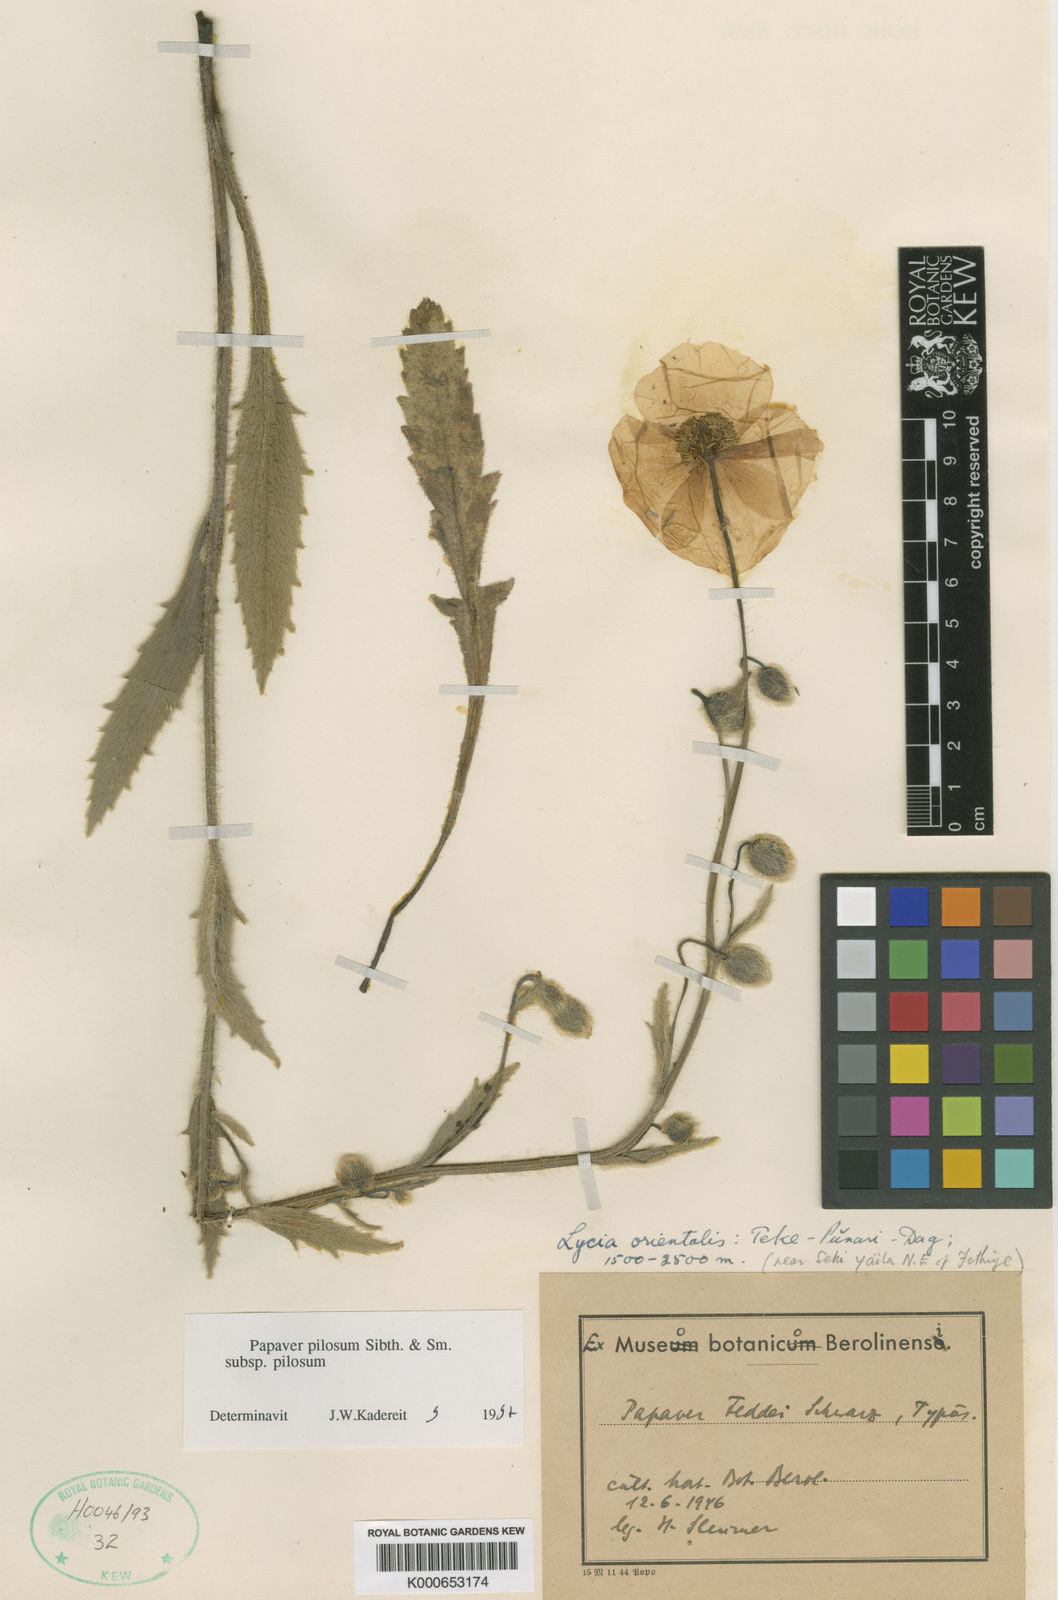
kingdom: Plantae
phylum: Tracheophyta
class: Magnoliopsida
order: Ranunculales
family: Papaveraceae
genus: Papaver
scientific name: Papaver pilosum
